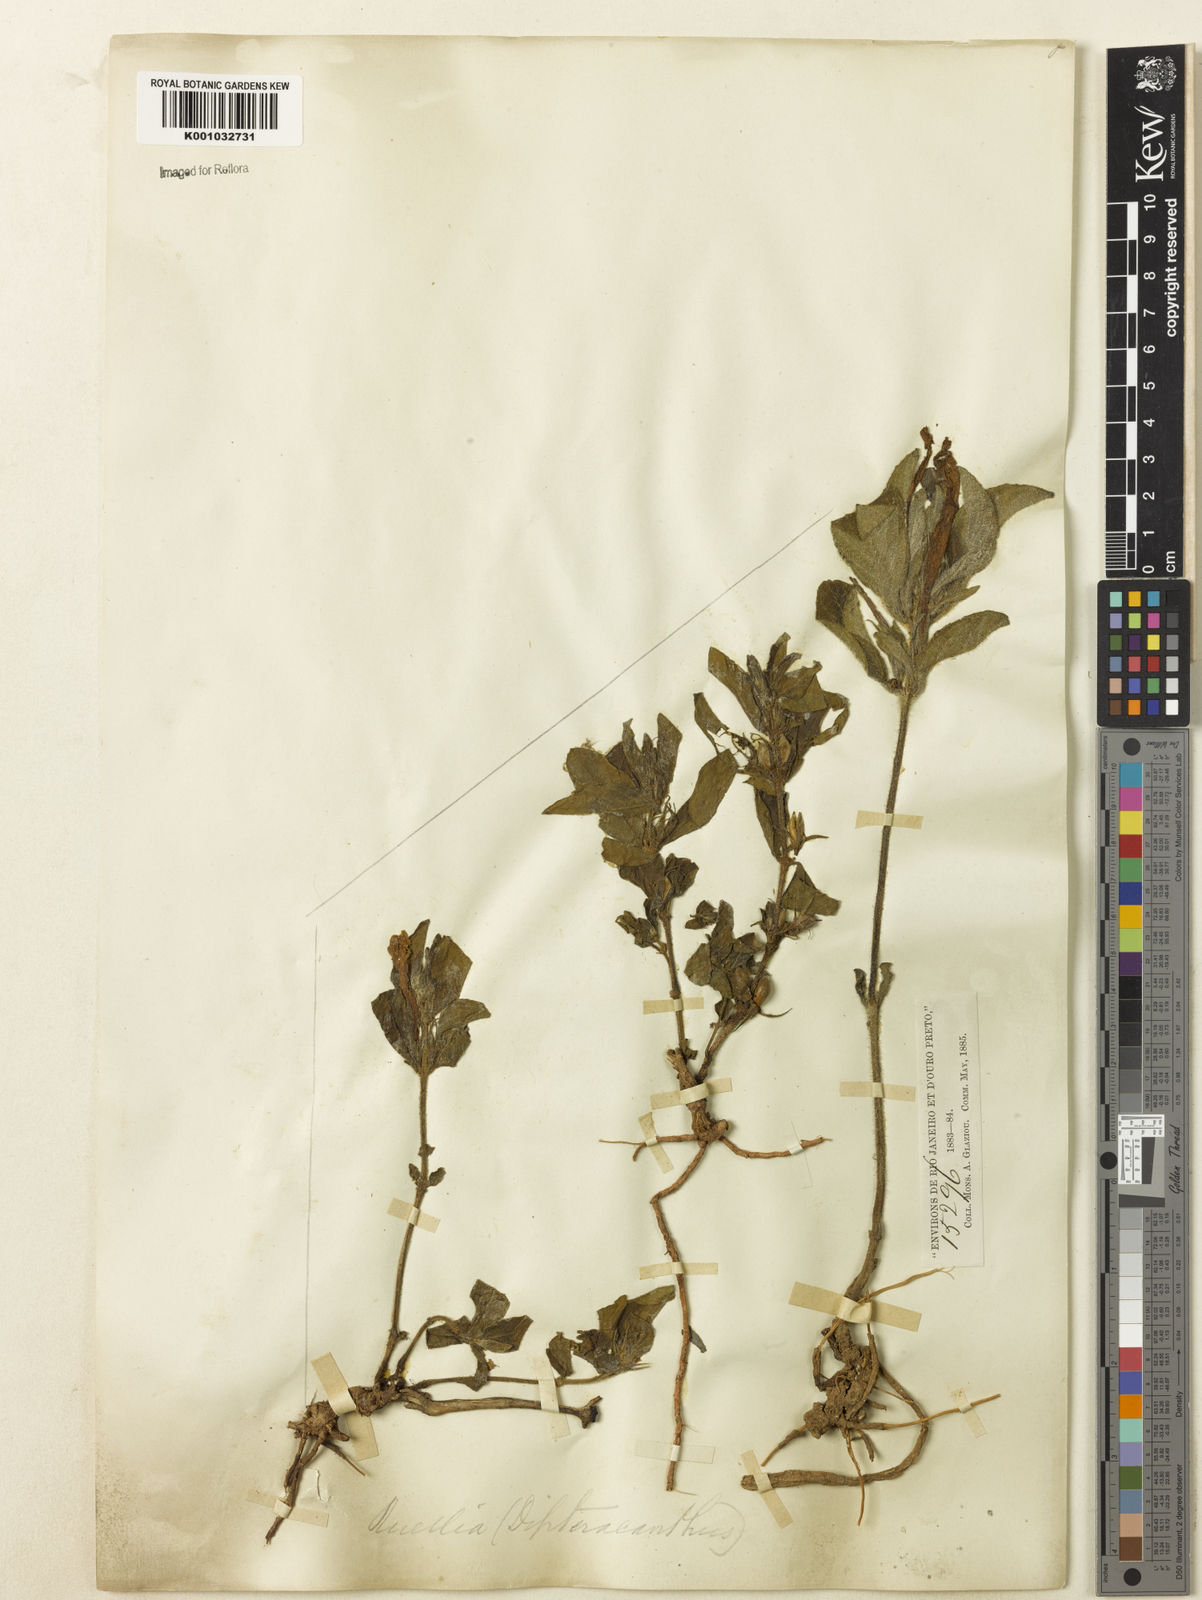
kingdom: Plantae
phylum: Tracheophyta
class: Magnoliopsida
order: Lamiales
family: Acanthaceae
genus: Ruellia
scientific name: Ruellia
